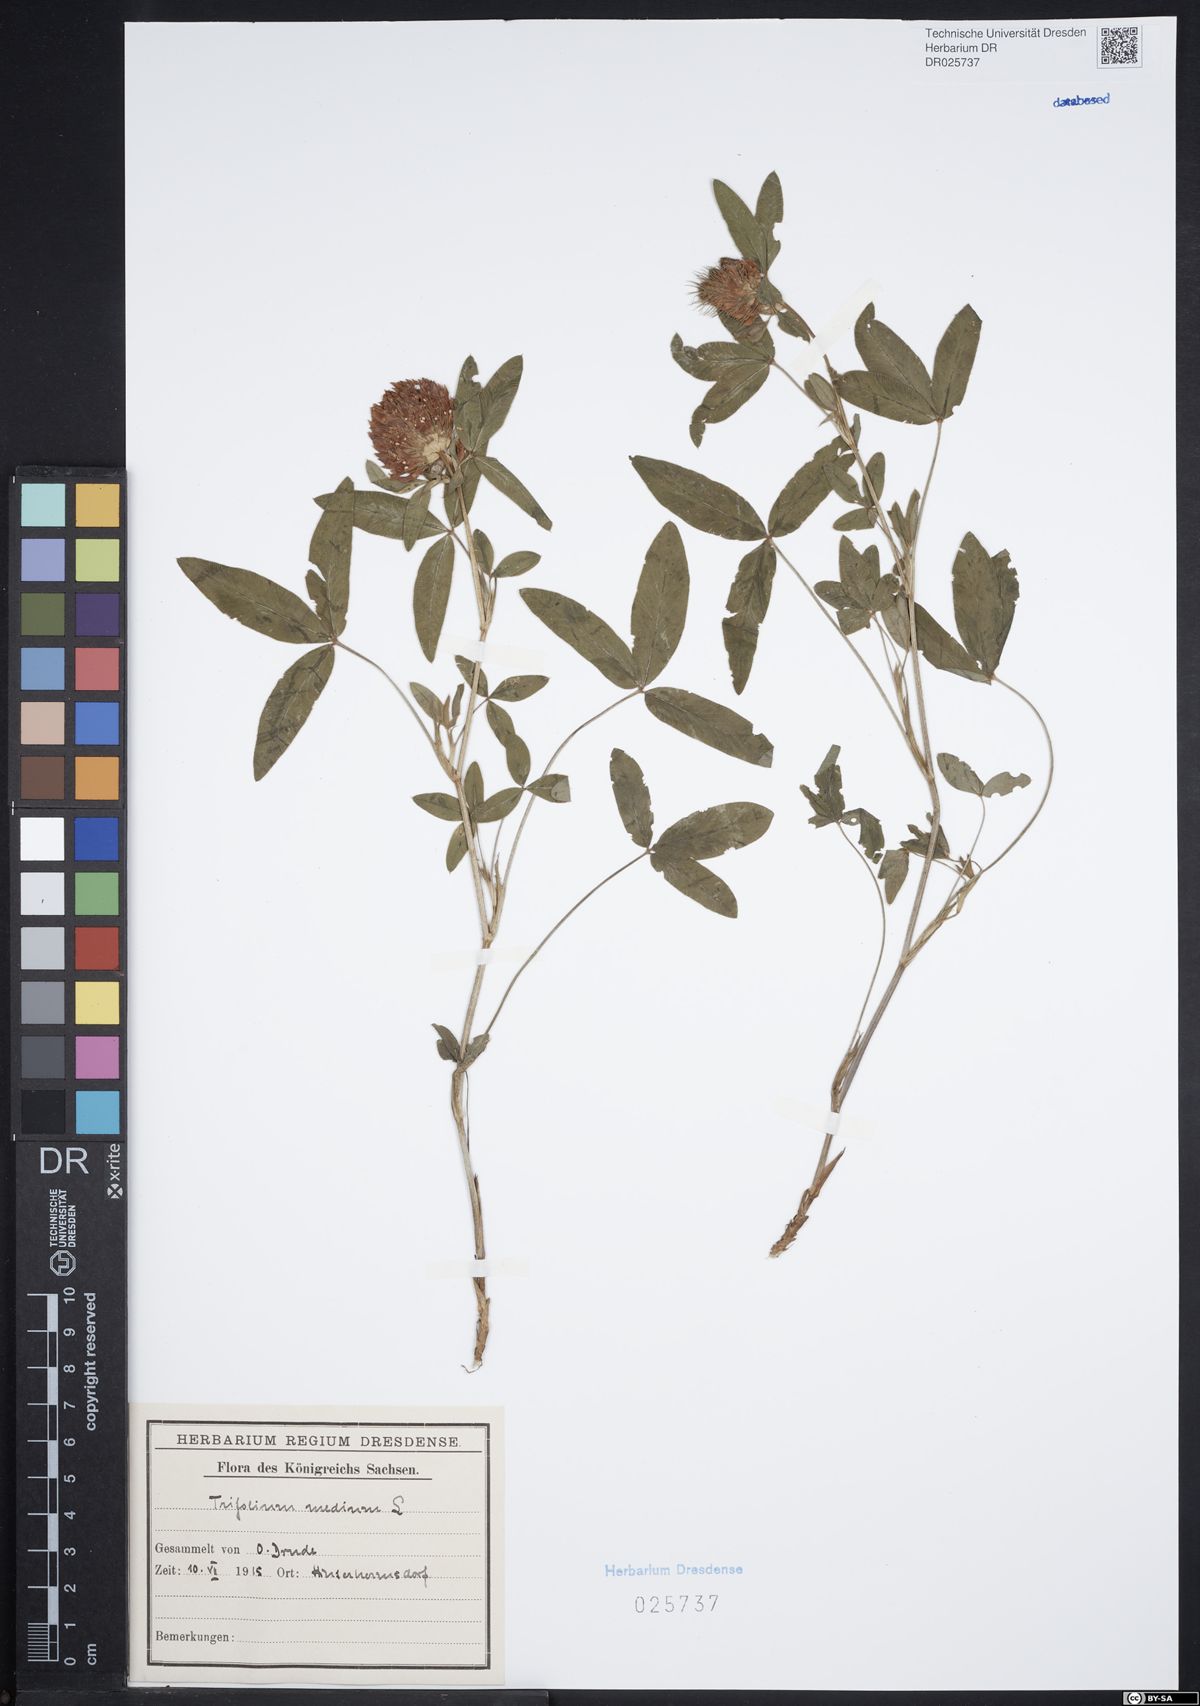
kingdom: Plantae
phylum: Tracheophyta
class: Magnoliopsida
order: Fabales
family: Fabaceae
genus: Trifolium
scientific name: Trifolium medium
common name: Zigzag clover
